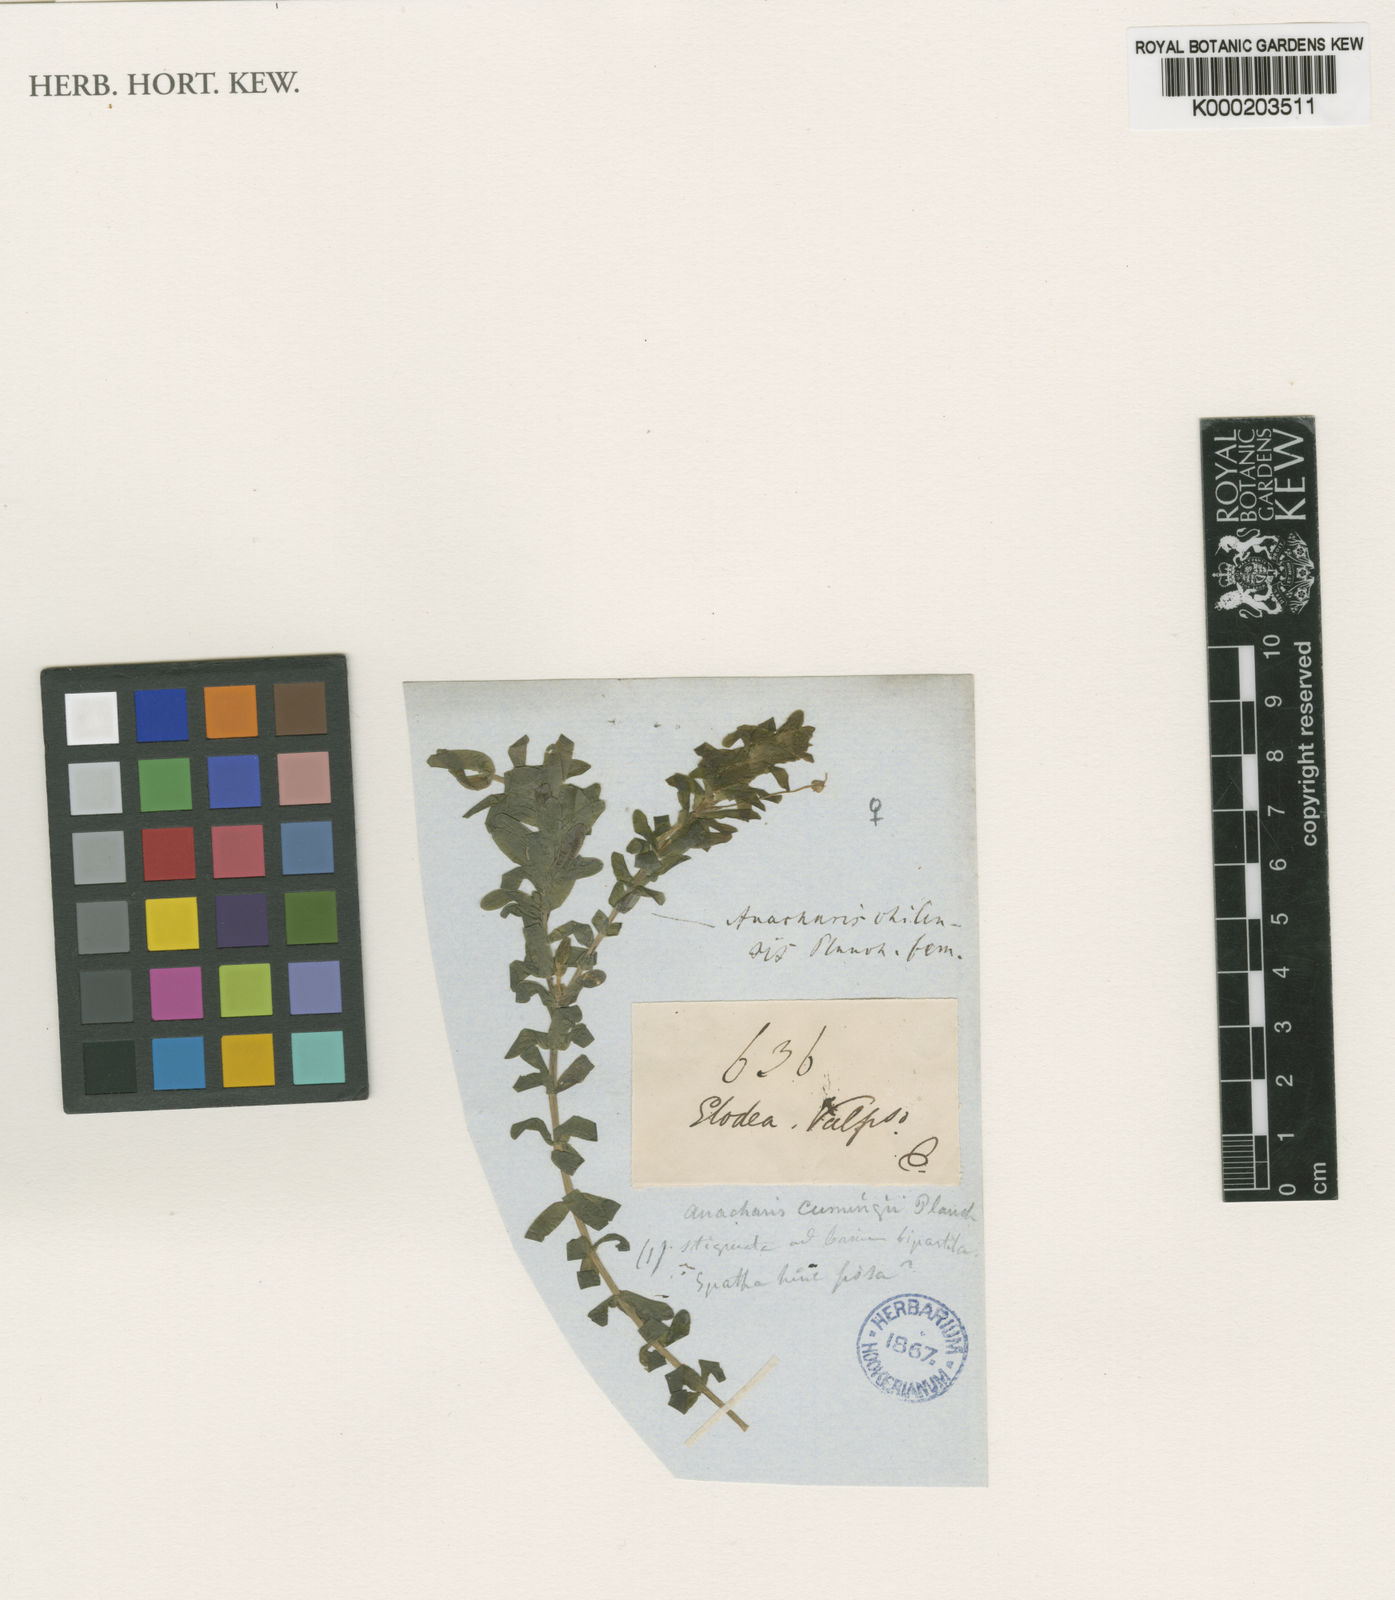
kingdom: Plantae
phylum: Tracheophyta
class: Liliopsida
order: Alismatales
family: Hydrocharitaceae
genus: Elodea
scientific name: Elodea potamogeton
